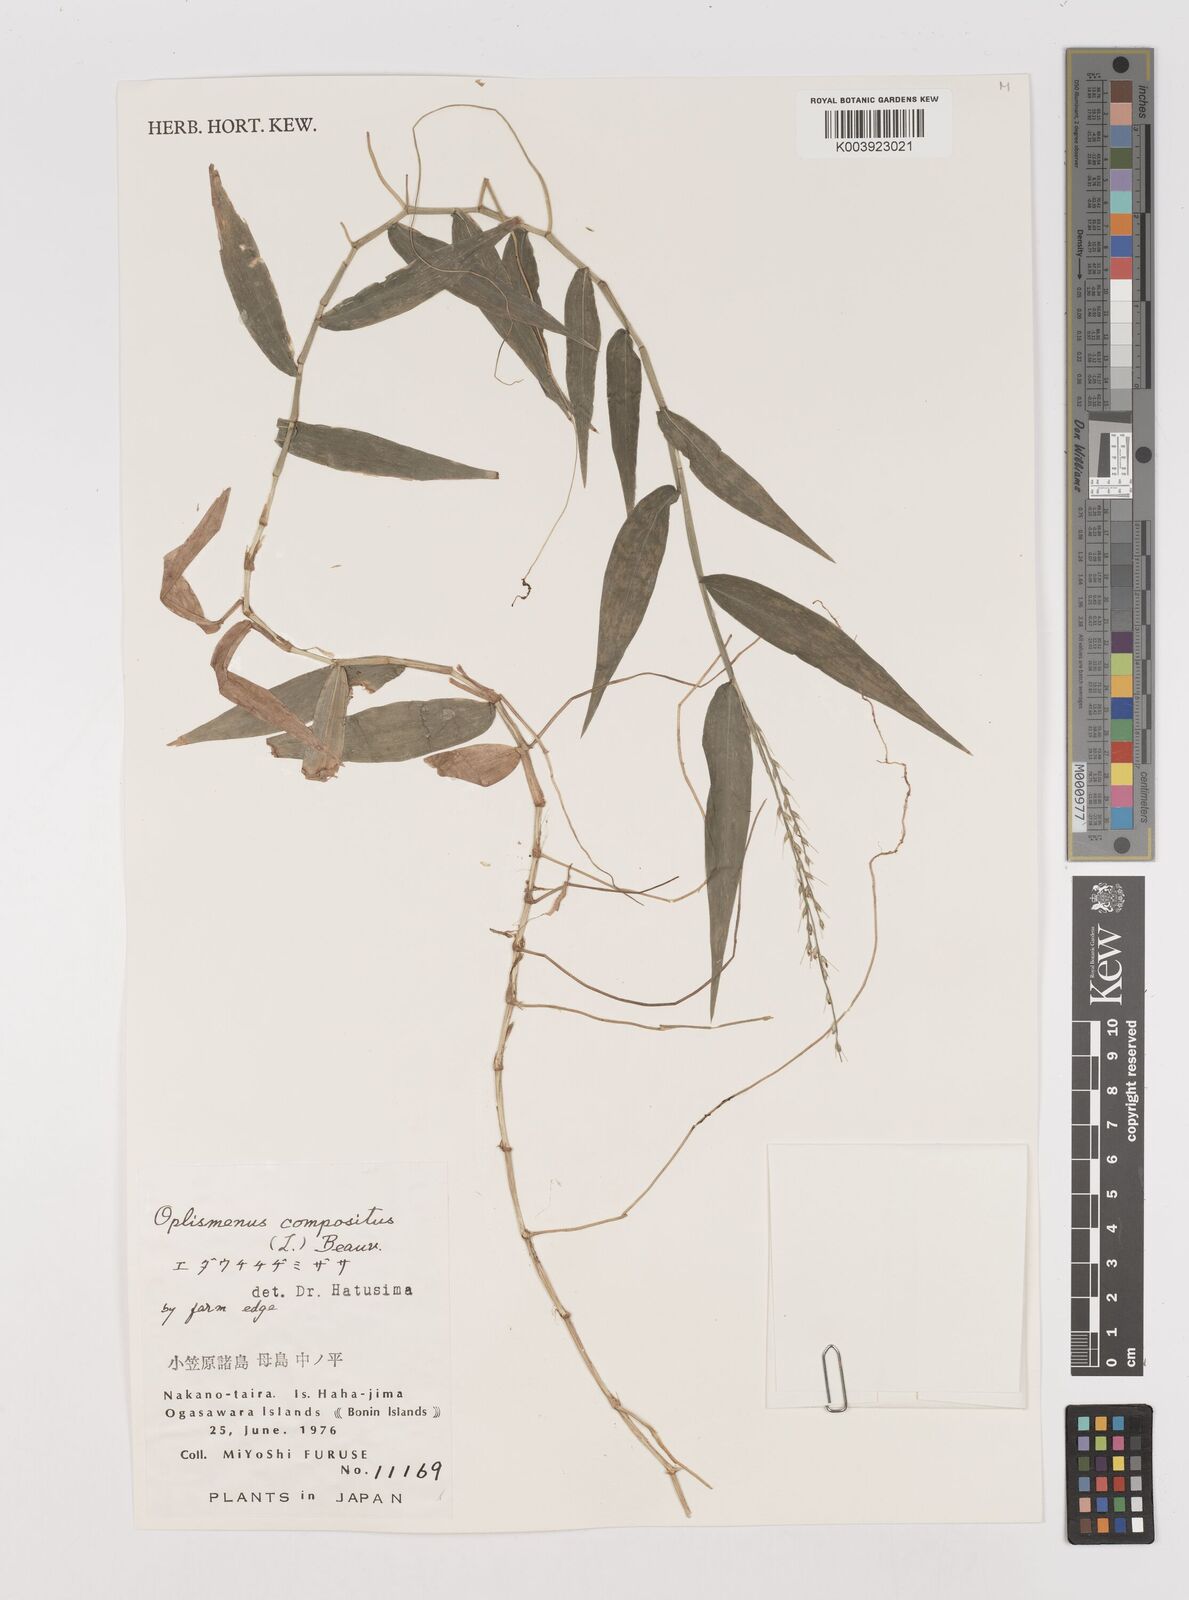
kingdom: Plantae
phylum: Tracheophyta
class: Liliopsida
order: Poales
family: Poaceae
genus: Oplismenus
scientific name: Oplismenus compositus
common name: Running mountain grass
